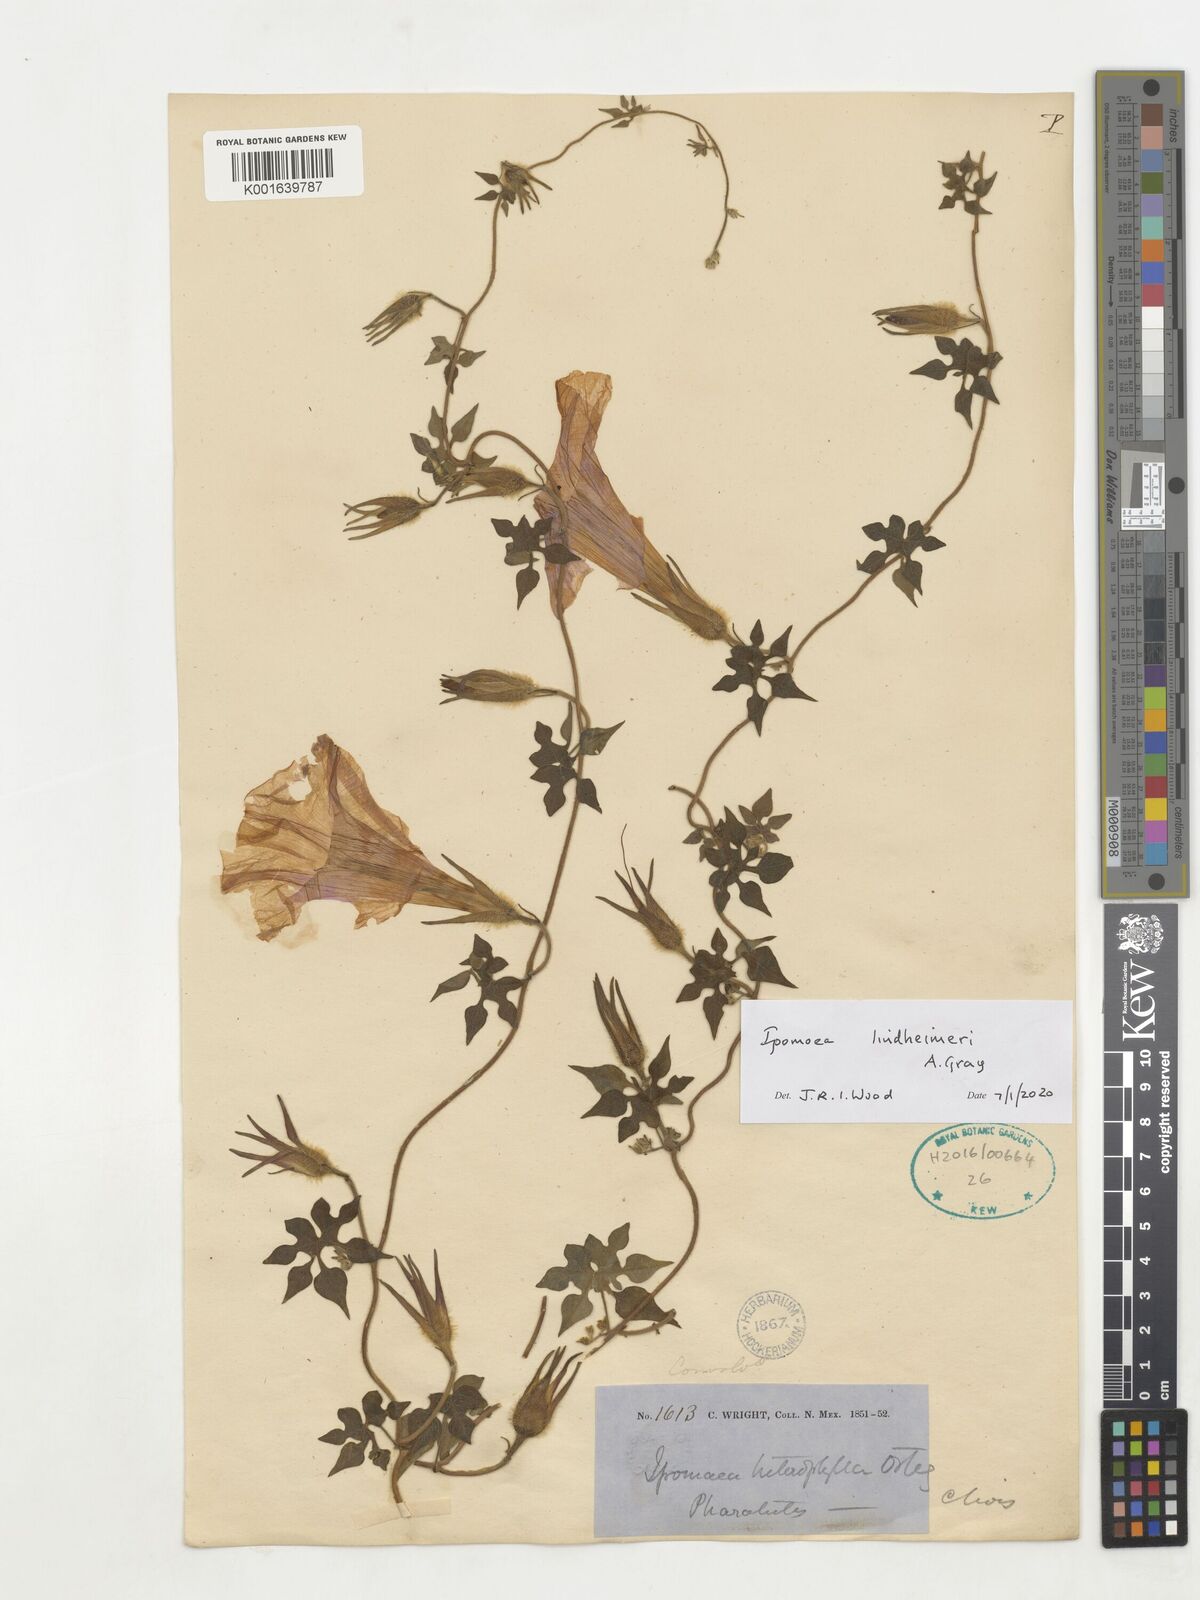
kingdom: Plantae
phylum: Tracheophyta
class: Magnoliopsida
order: Solanales
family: Convolvulaceae
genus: Ipomoea
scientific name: Ipomoea lindheimeri
